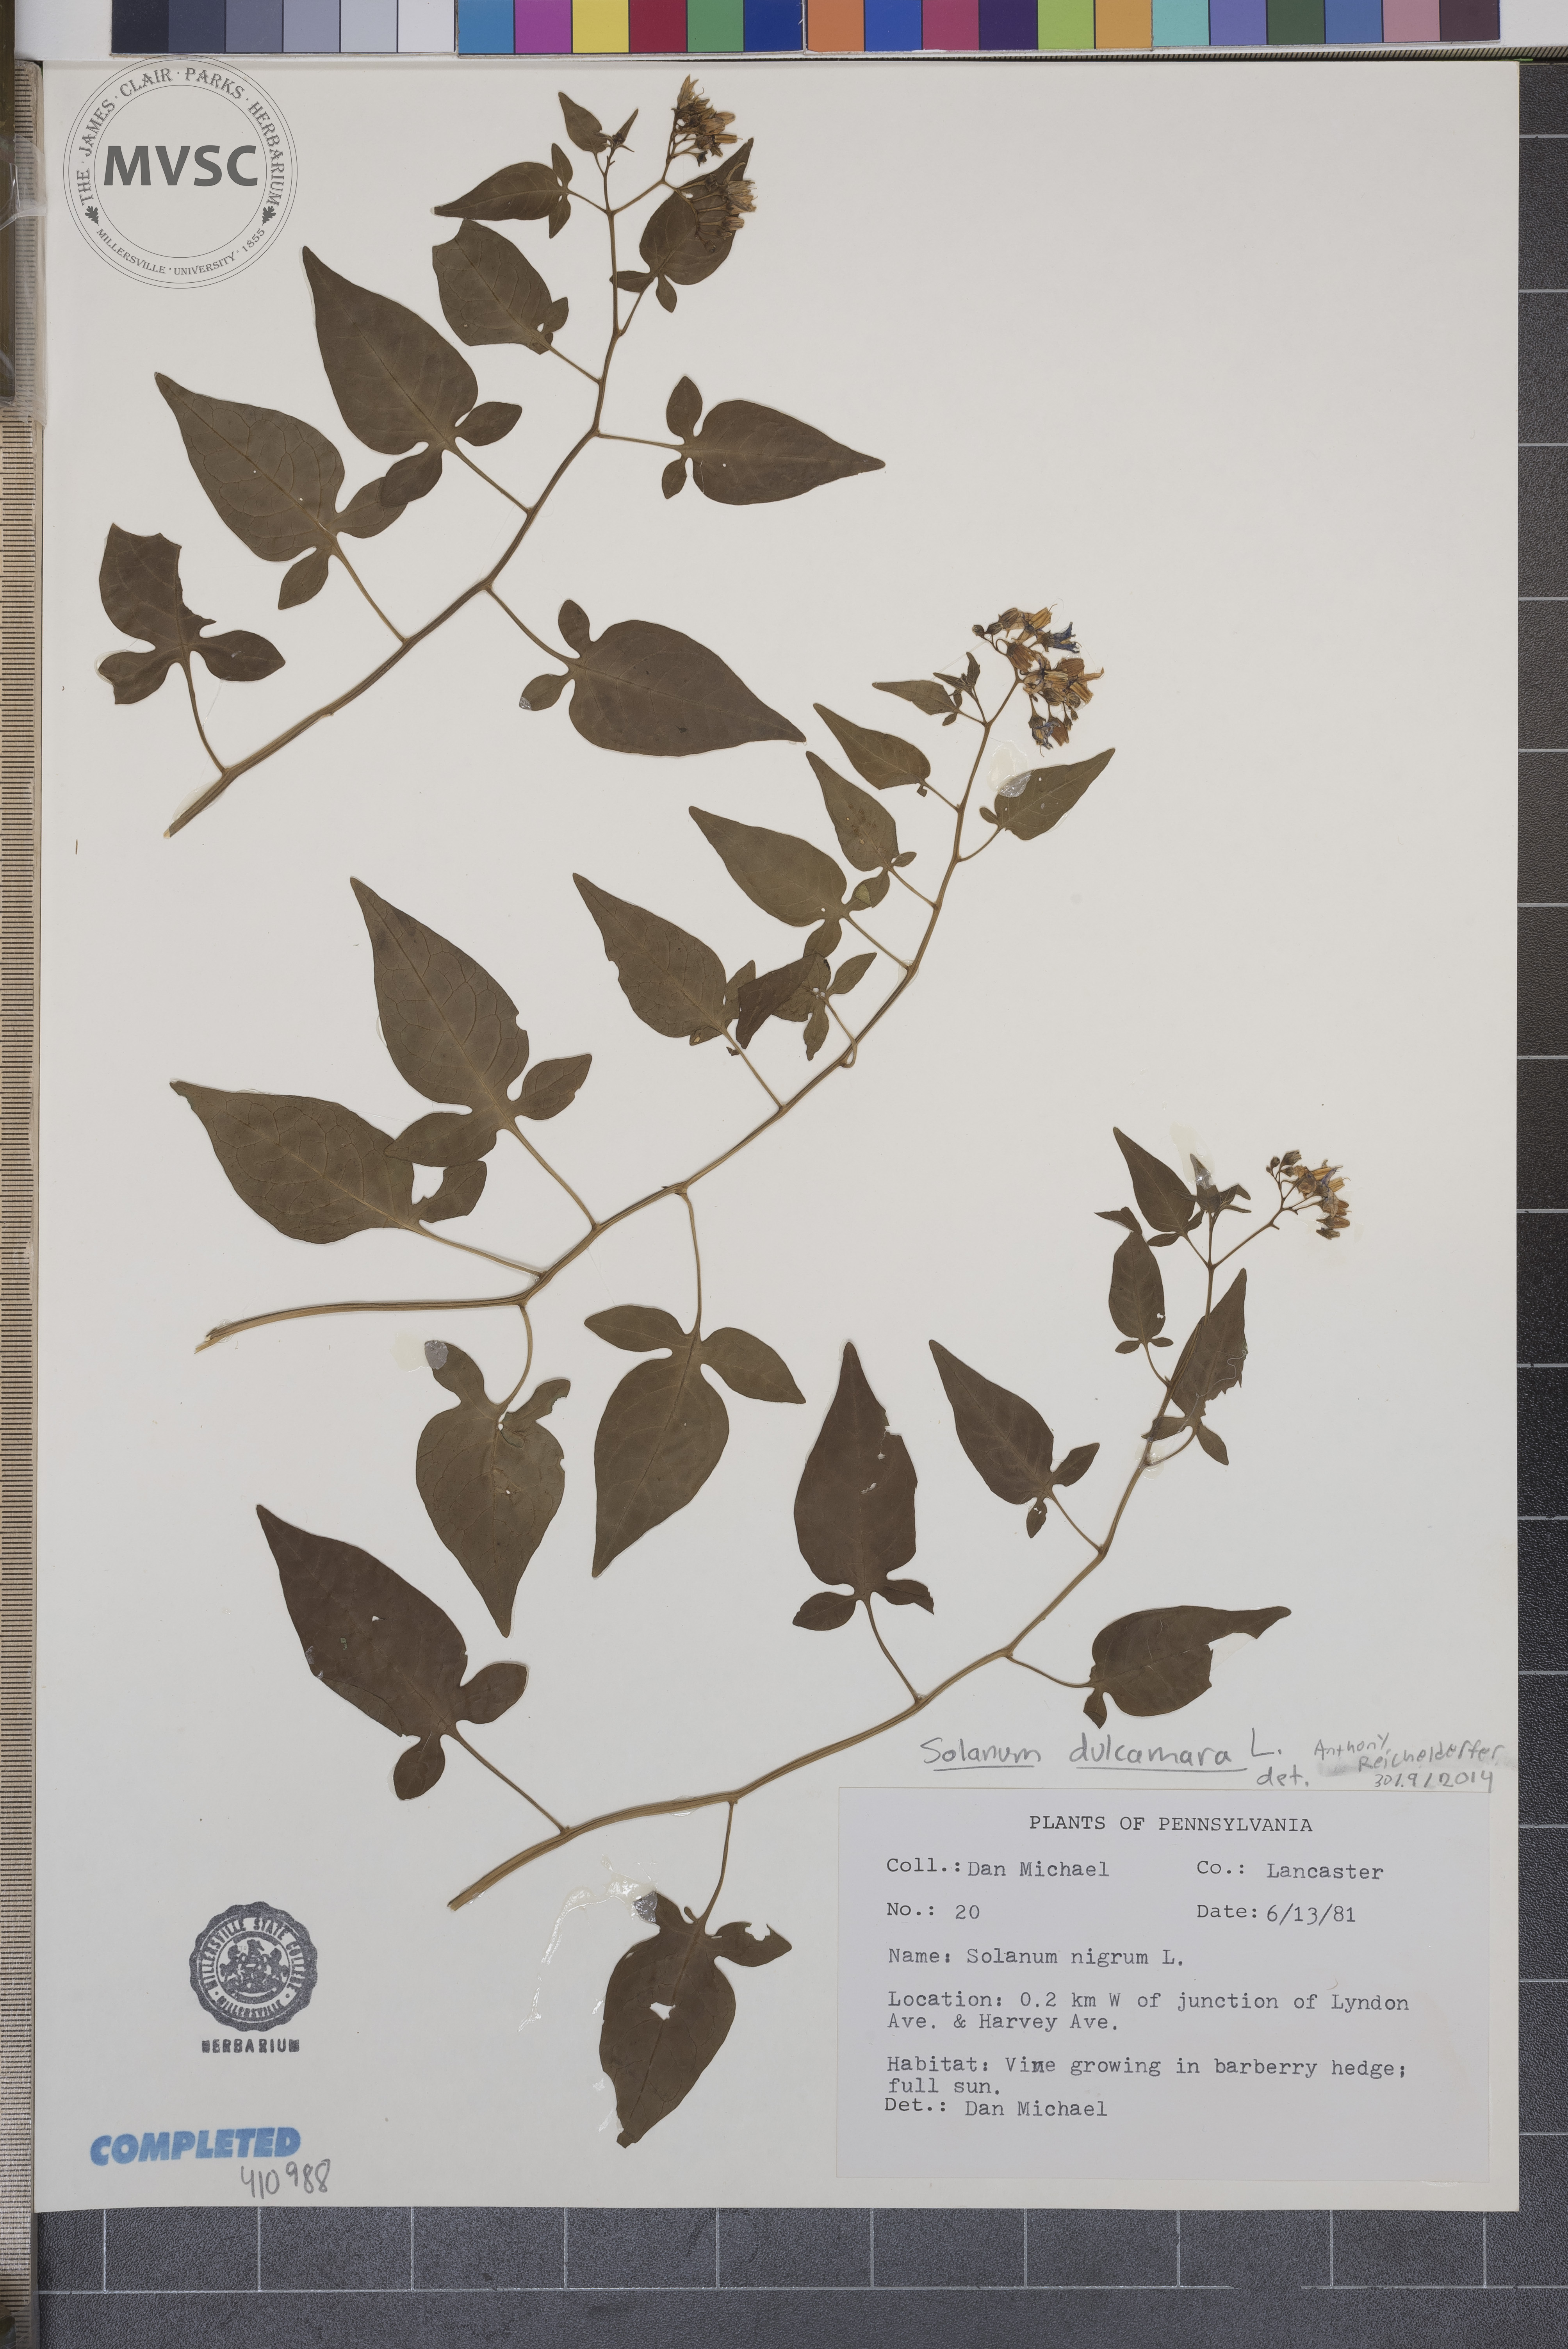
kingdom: Plantae
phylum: Tracheophyta
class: Magnoliopsida
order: Solanales
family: Solanaceae
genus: Solanum
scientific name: Solanum dulcamara
